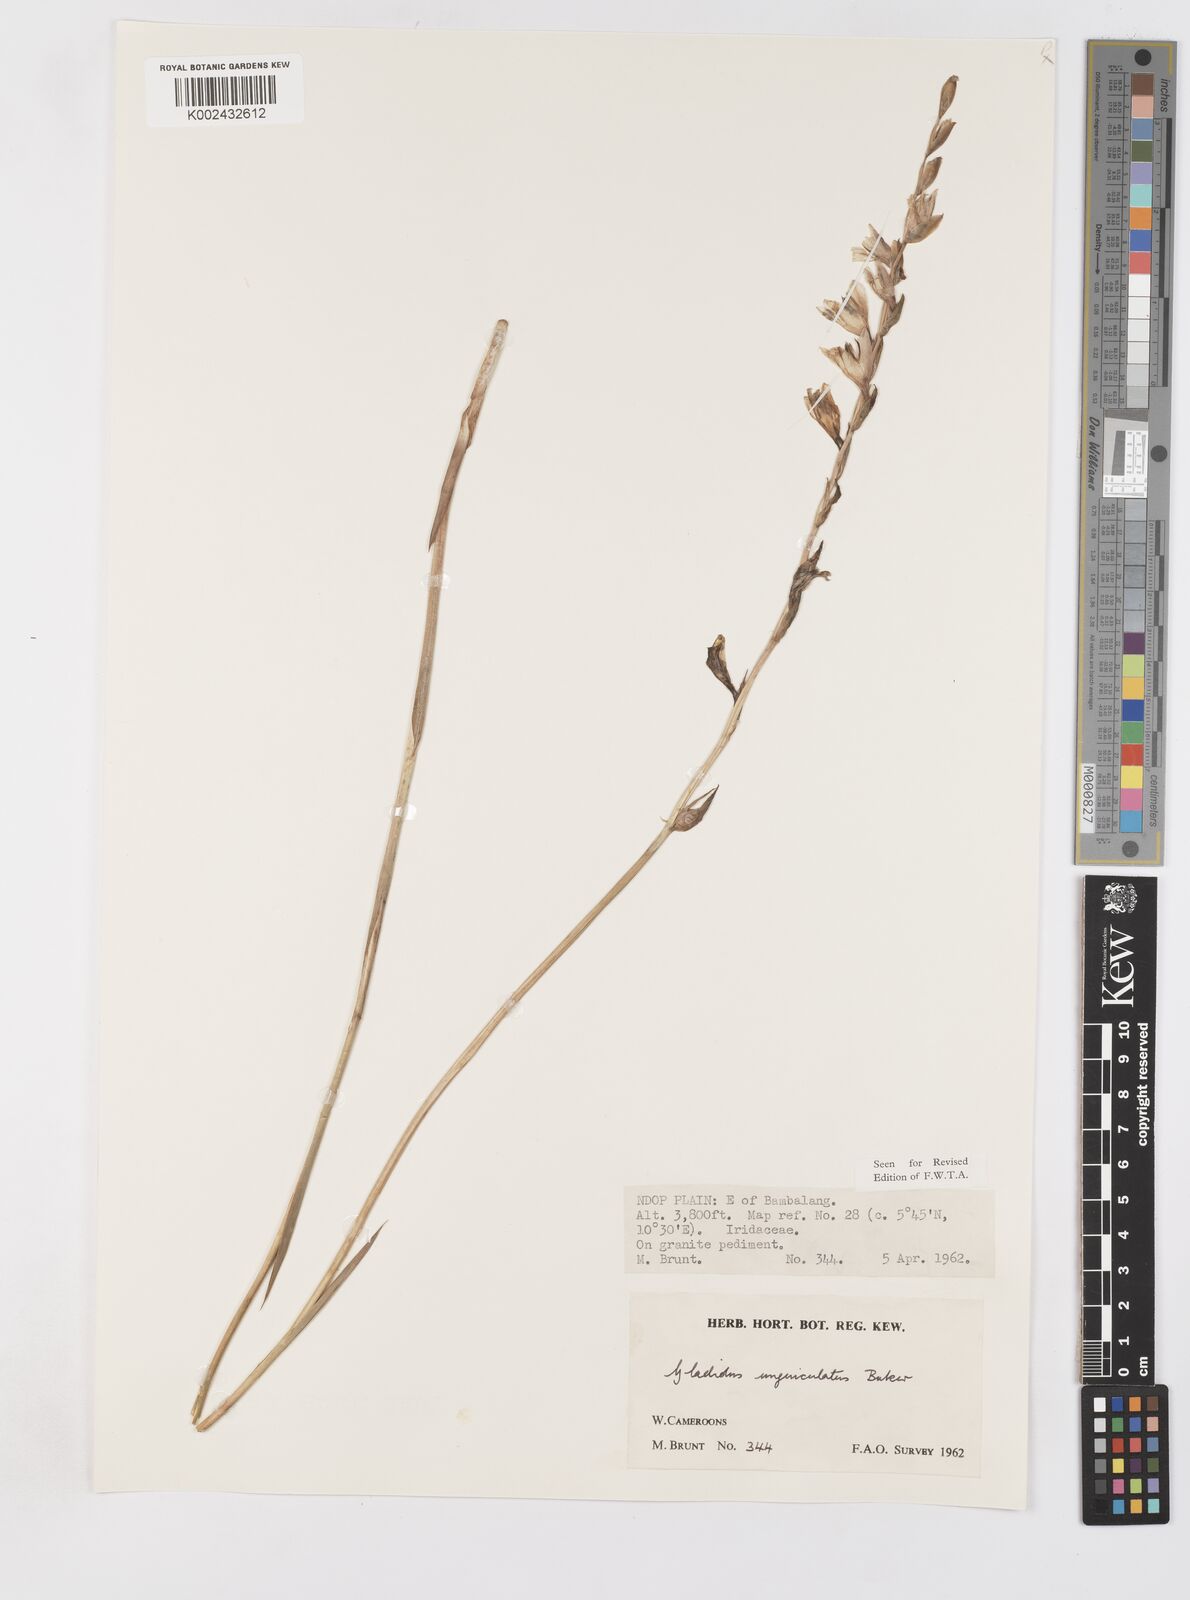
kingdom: Plantae
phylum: Tracheophyta
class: Liliopsida
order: Asparagales
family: Iridaceae
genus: Gladiolus
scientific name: Gladiolus unguiculatus
